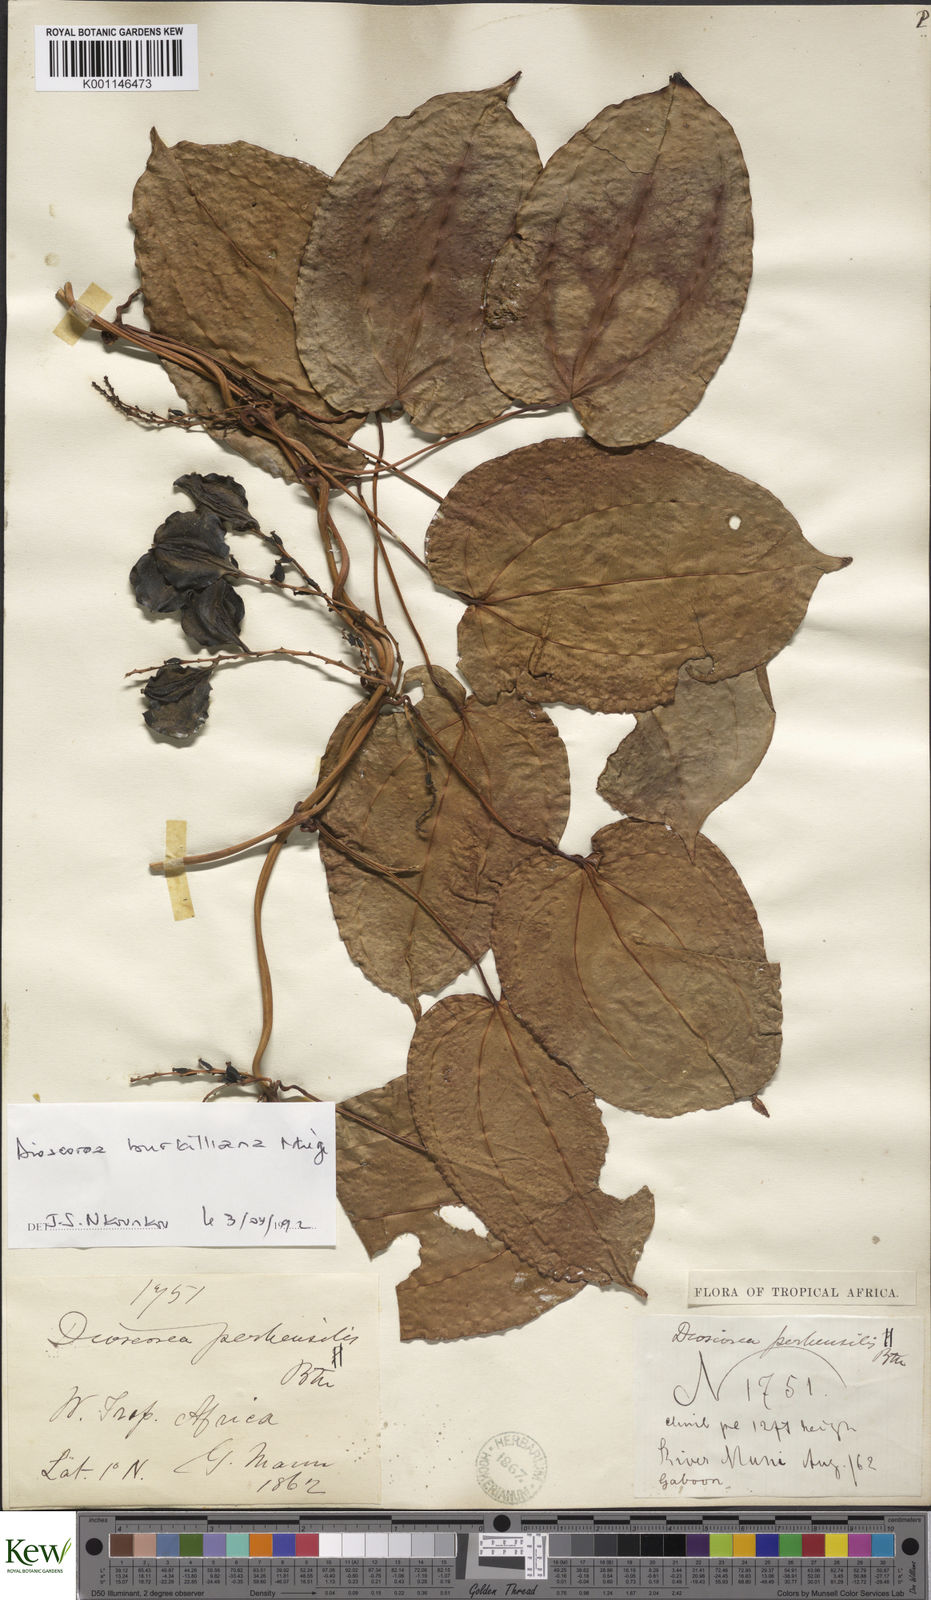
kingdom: Plantae
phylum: Tracheophyta
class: Liliopsida
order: Dioscoreales
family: Dioscoreaceae
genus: Dioscorea
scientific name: Dioscorea minutiflora
